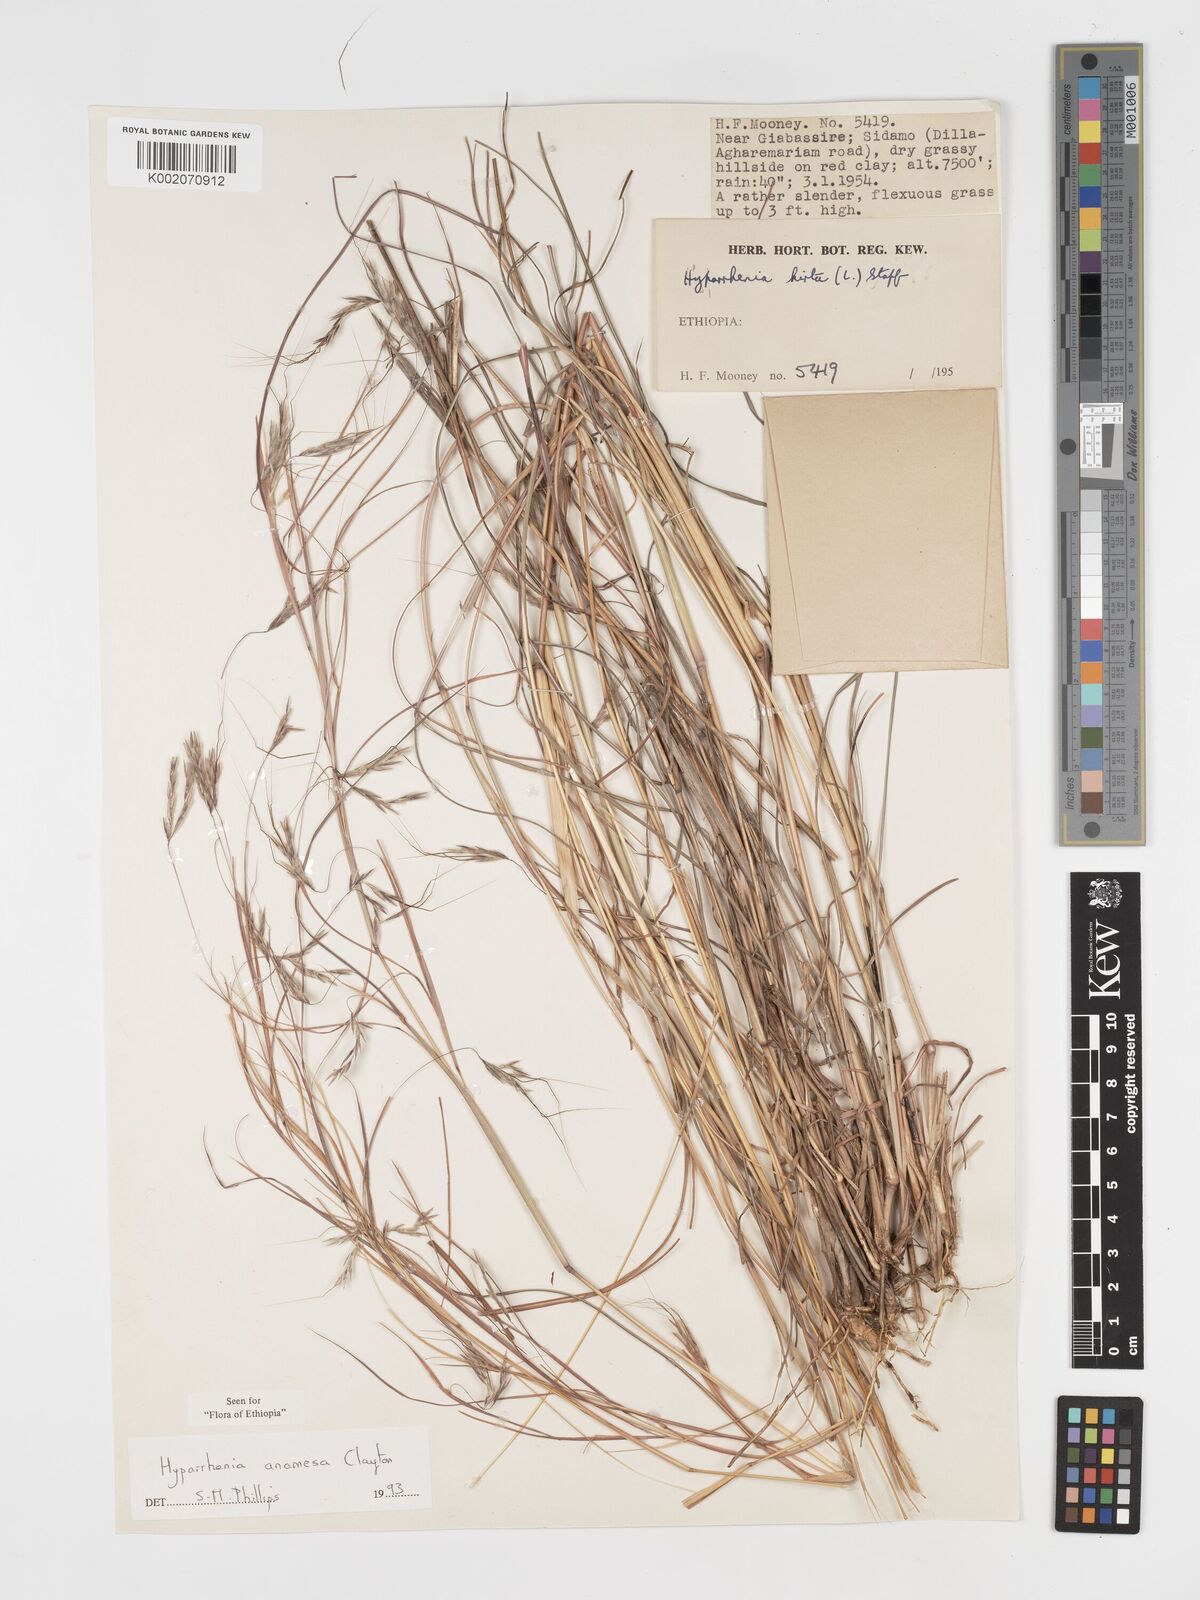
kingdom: Plantae
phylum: Tracheophyta
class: Liliopsida
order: Poales
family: Poaceae
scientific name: Poaceae
